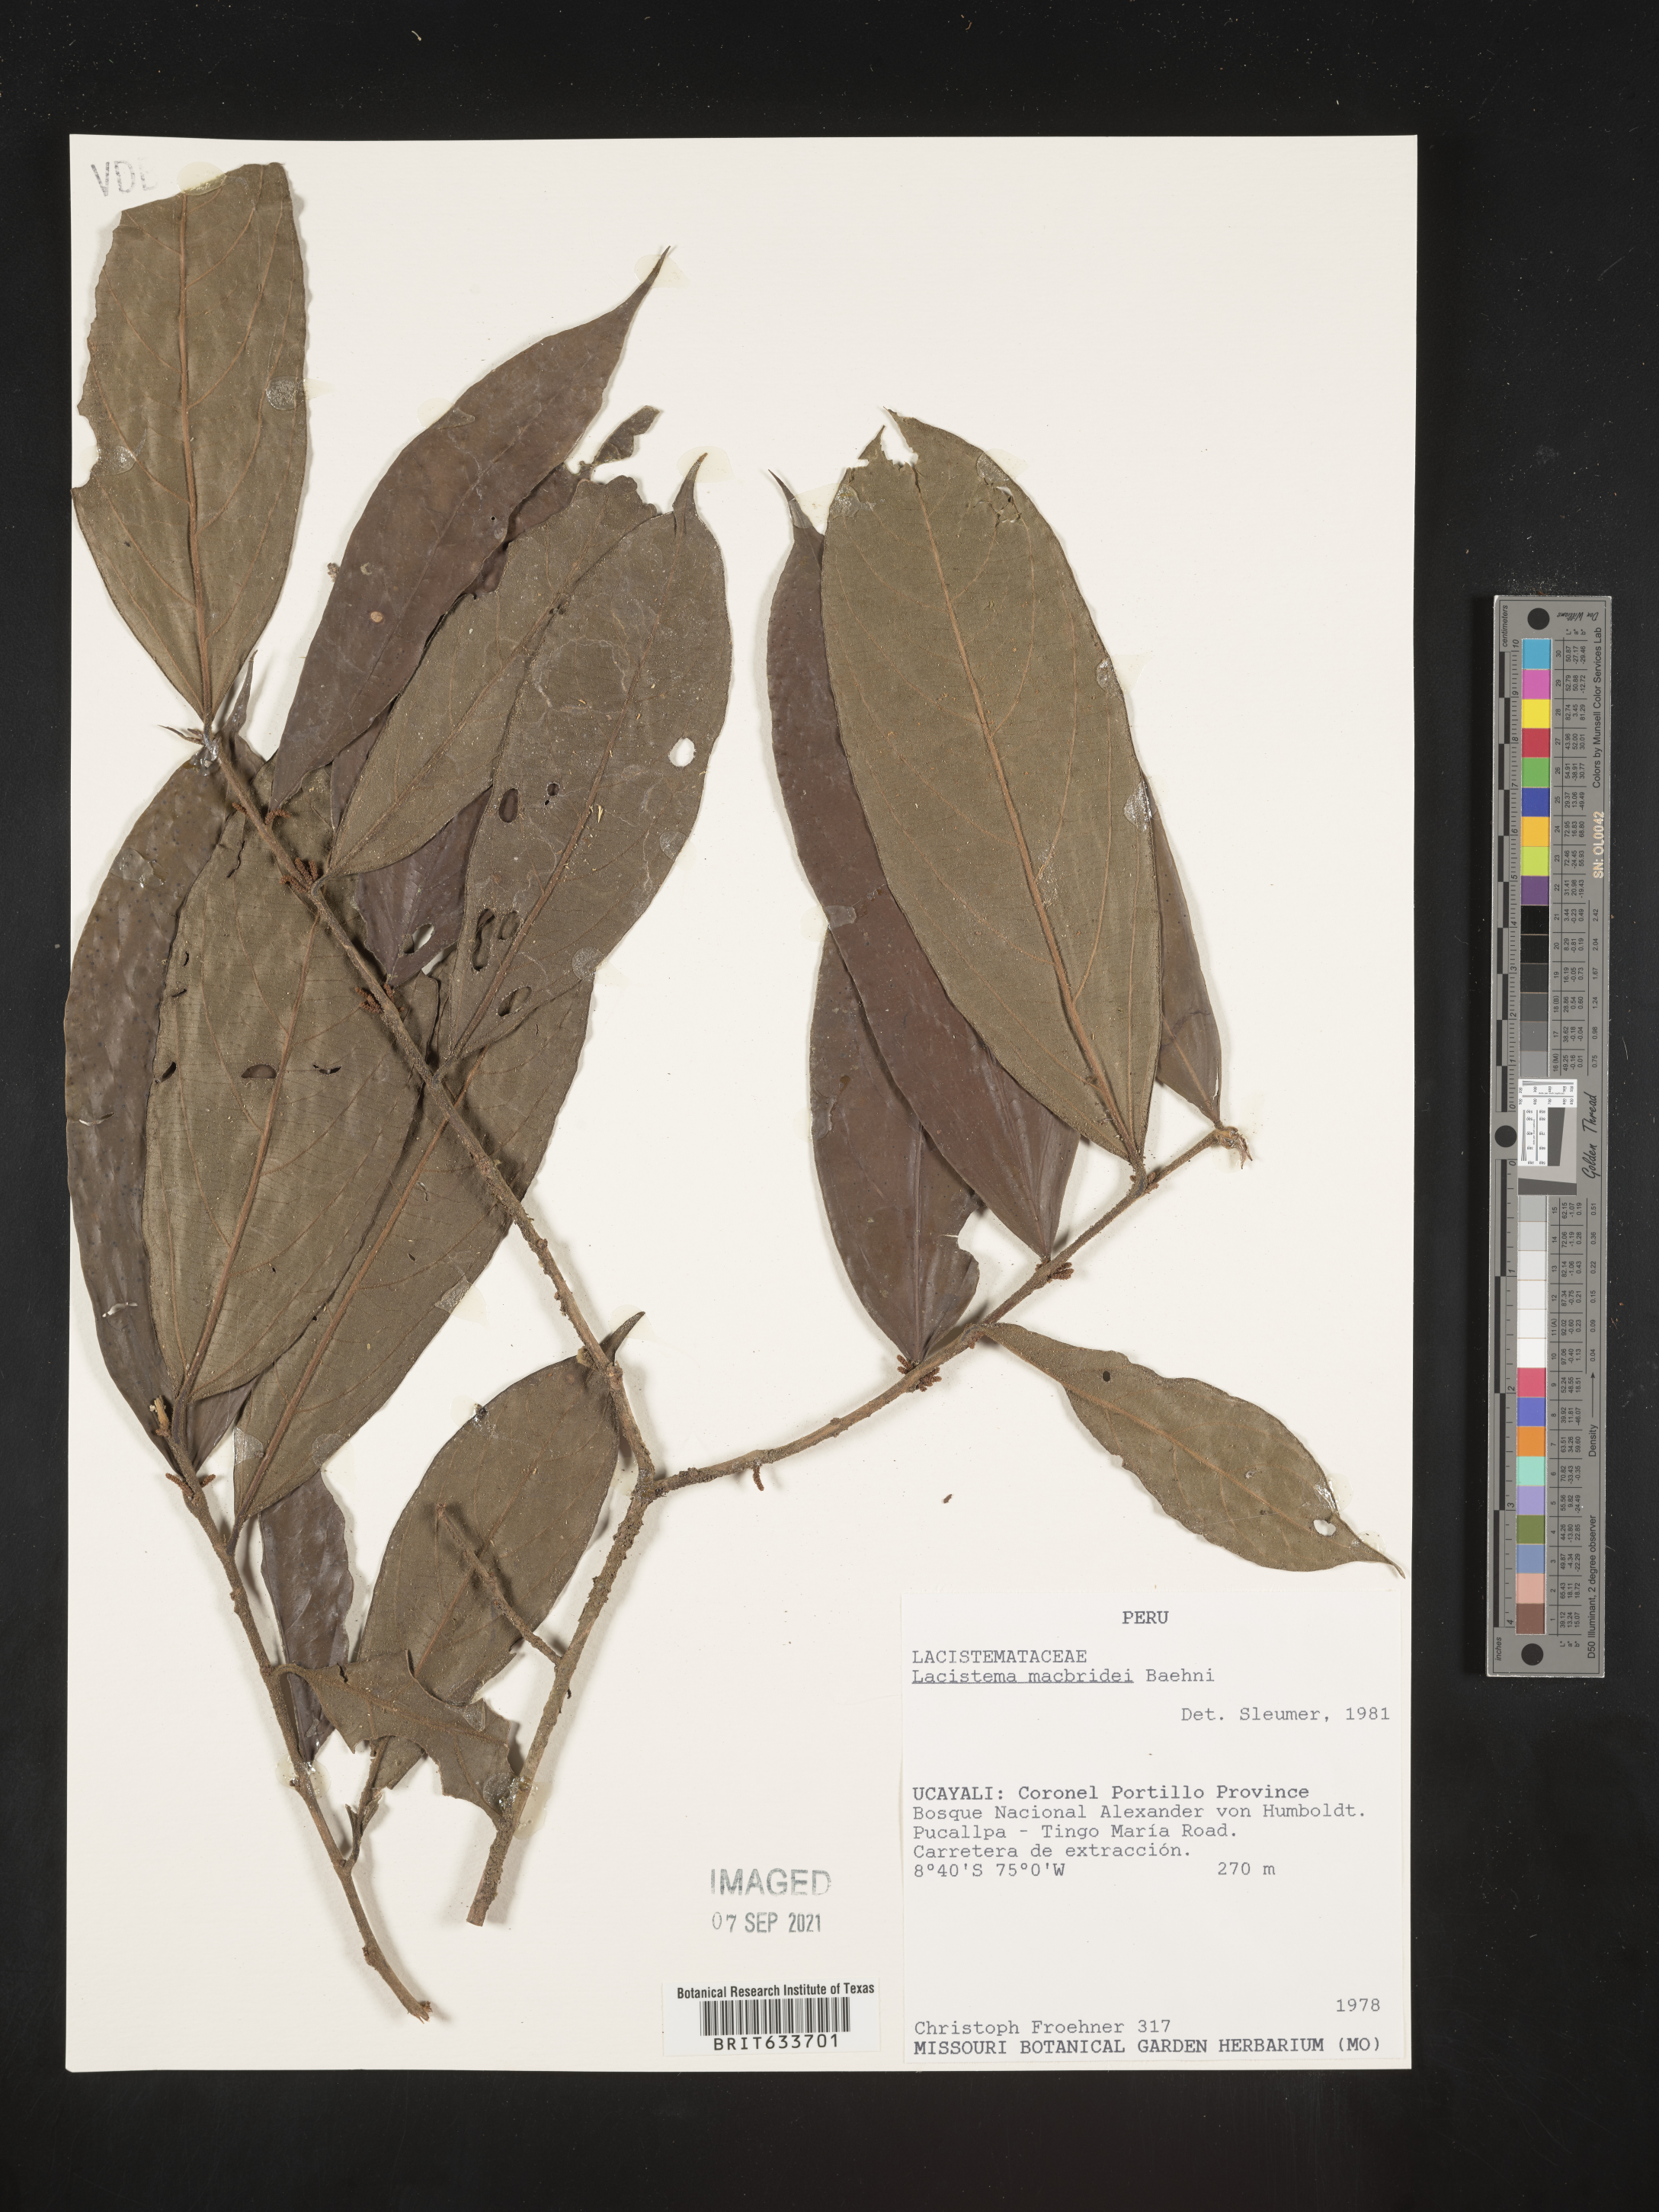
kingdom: Plantae
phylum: Tracheophyta
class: Magnoliopsida
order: Malpighiales
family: Lacistemataceae
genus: Lacistema
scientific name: Lacistema
